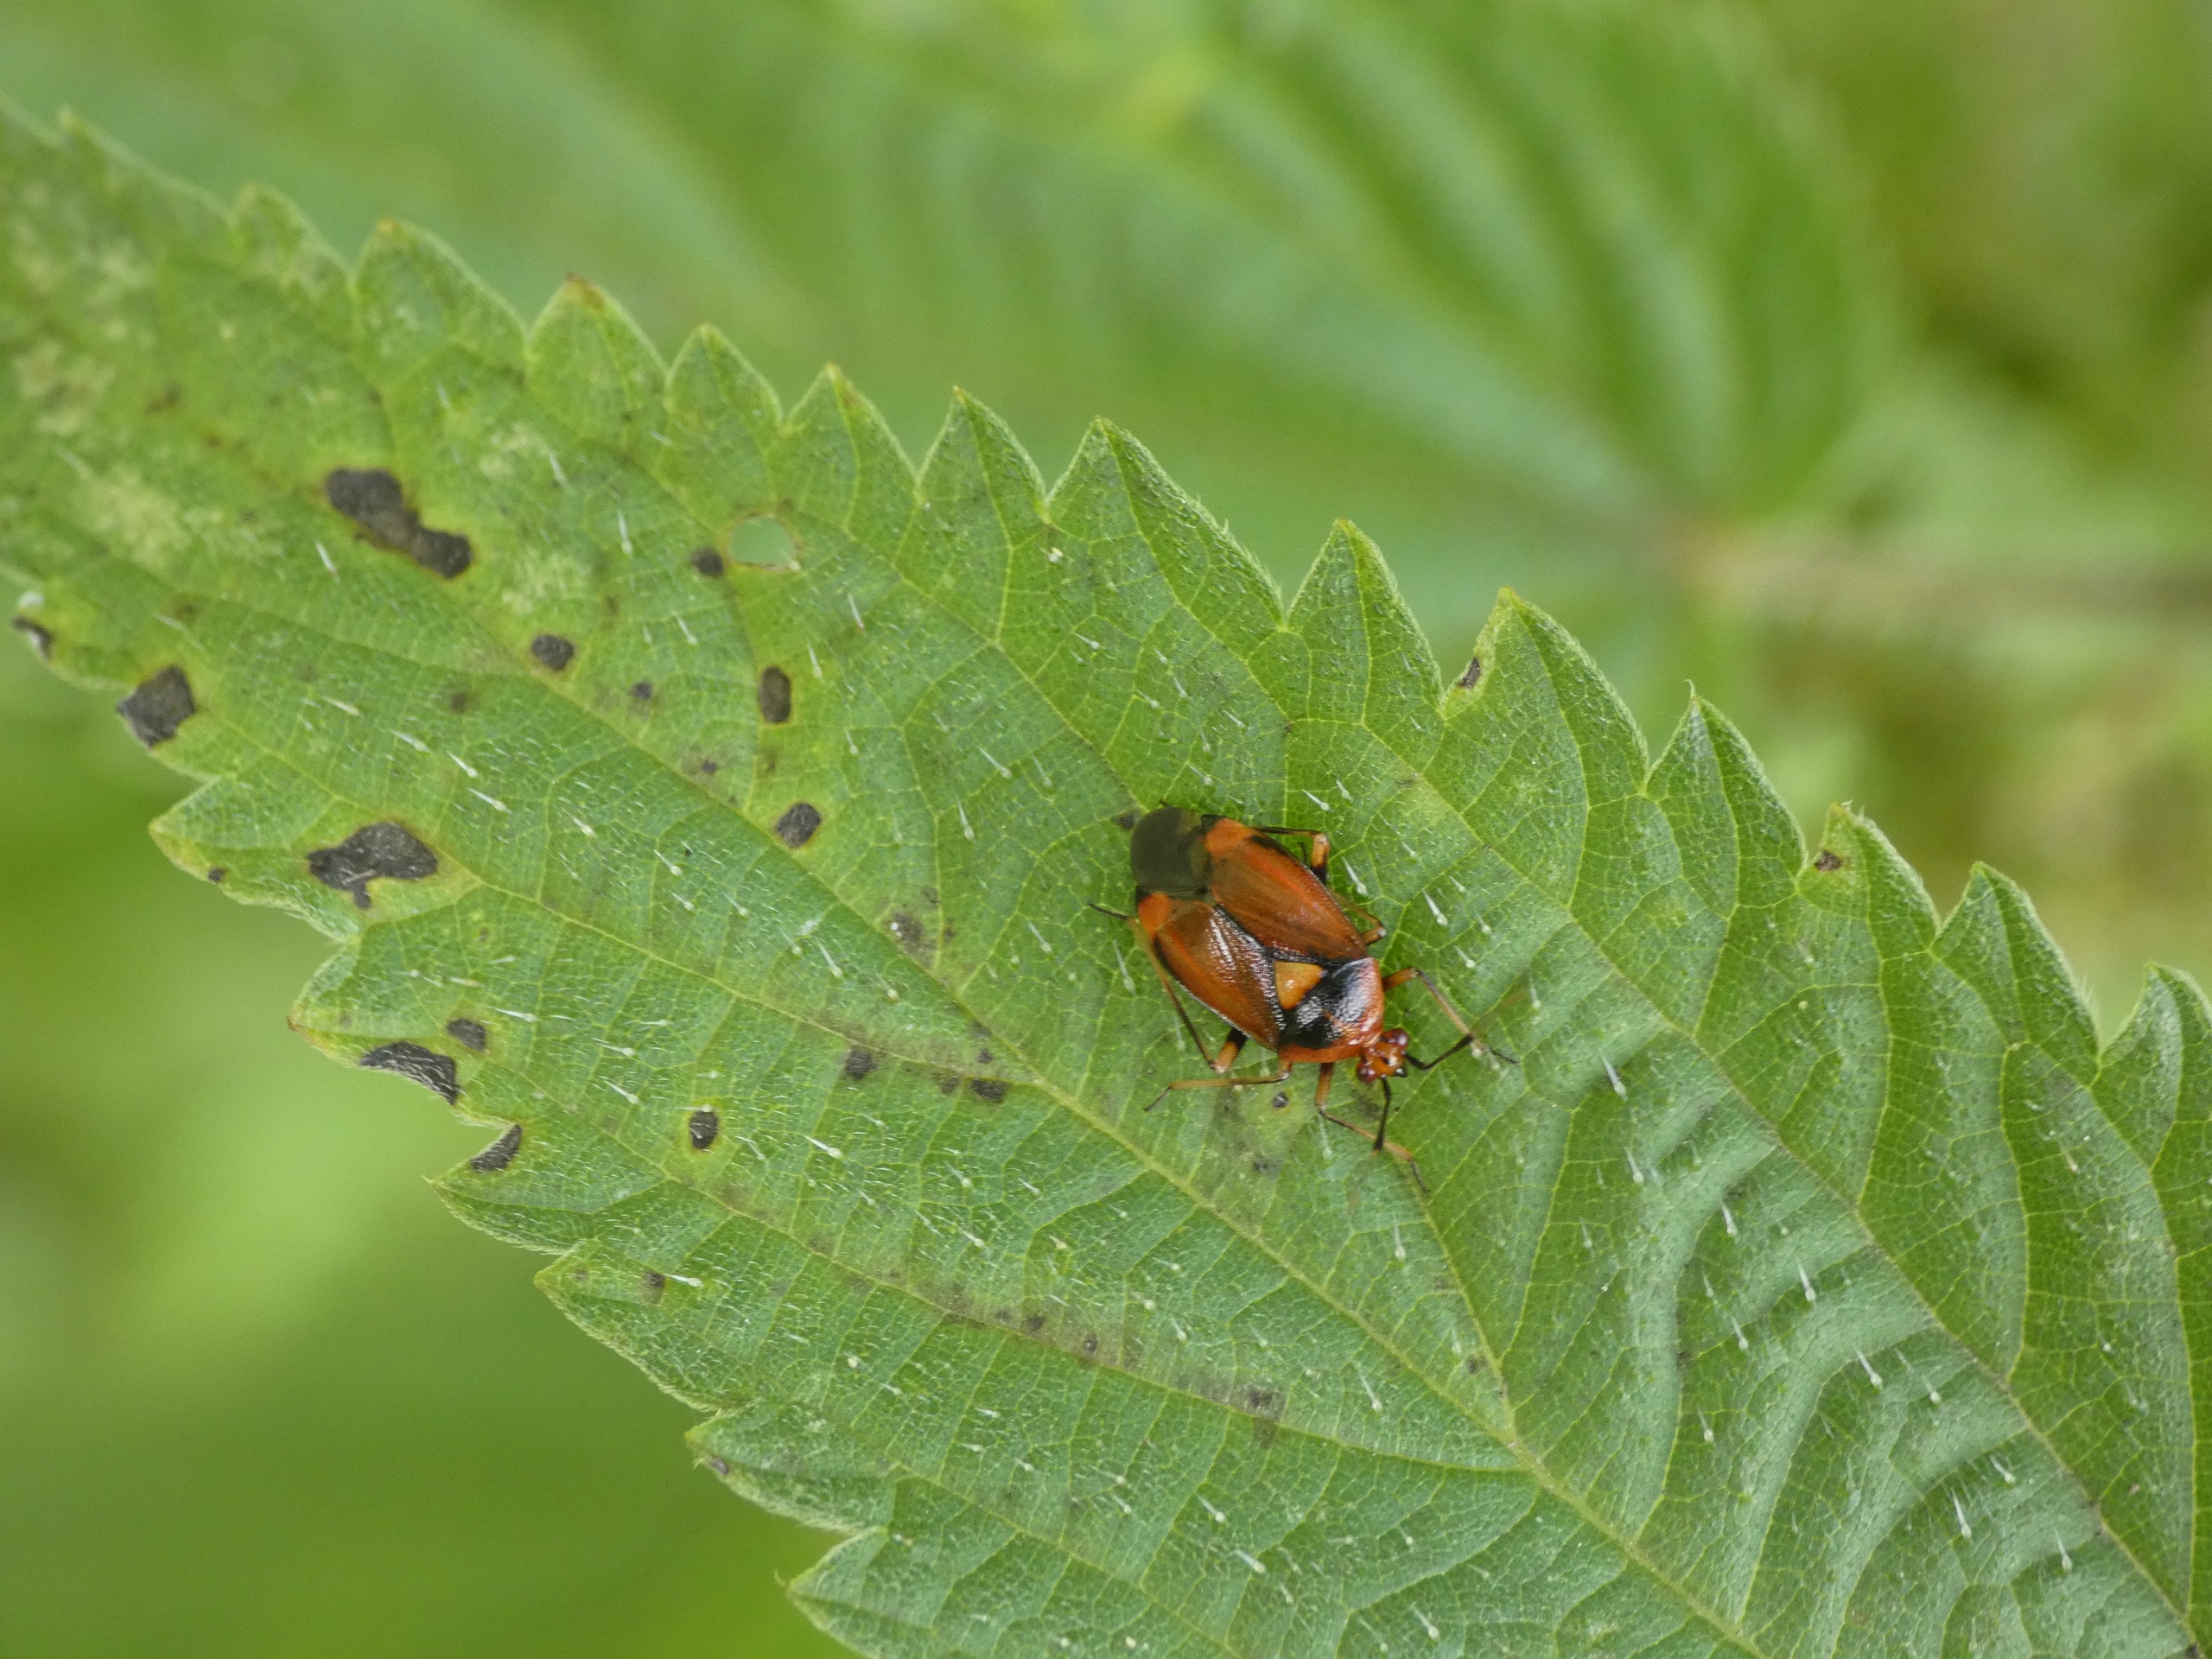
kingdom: Animalia
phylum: Arthropoda
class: Insecta
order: Hemiptera
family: Miridae
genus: Deraeocoris
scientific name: Deraeocoris ruber
